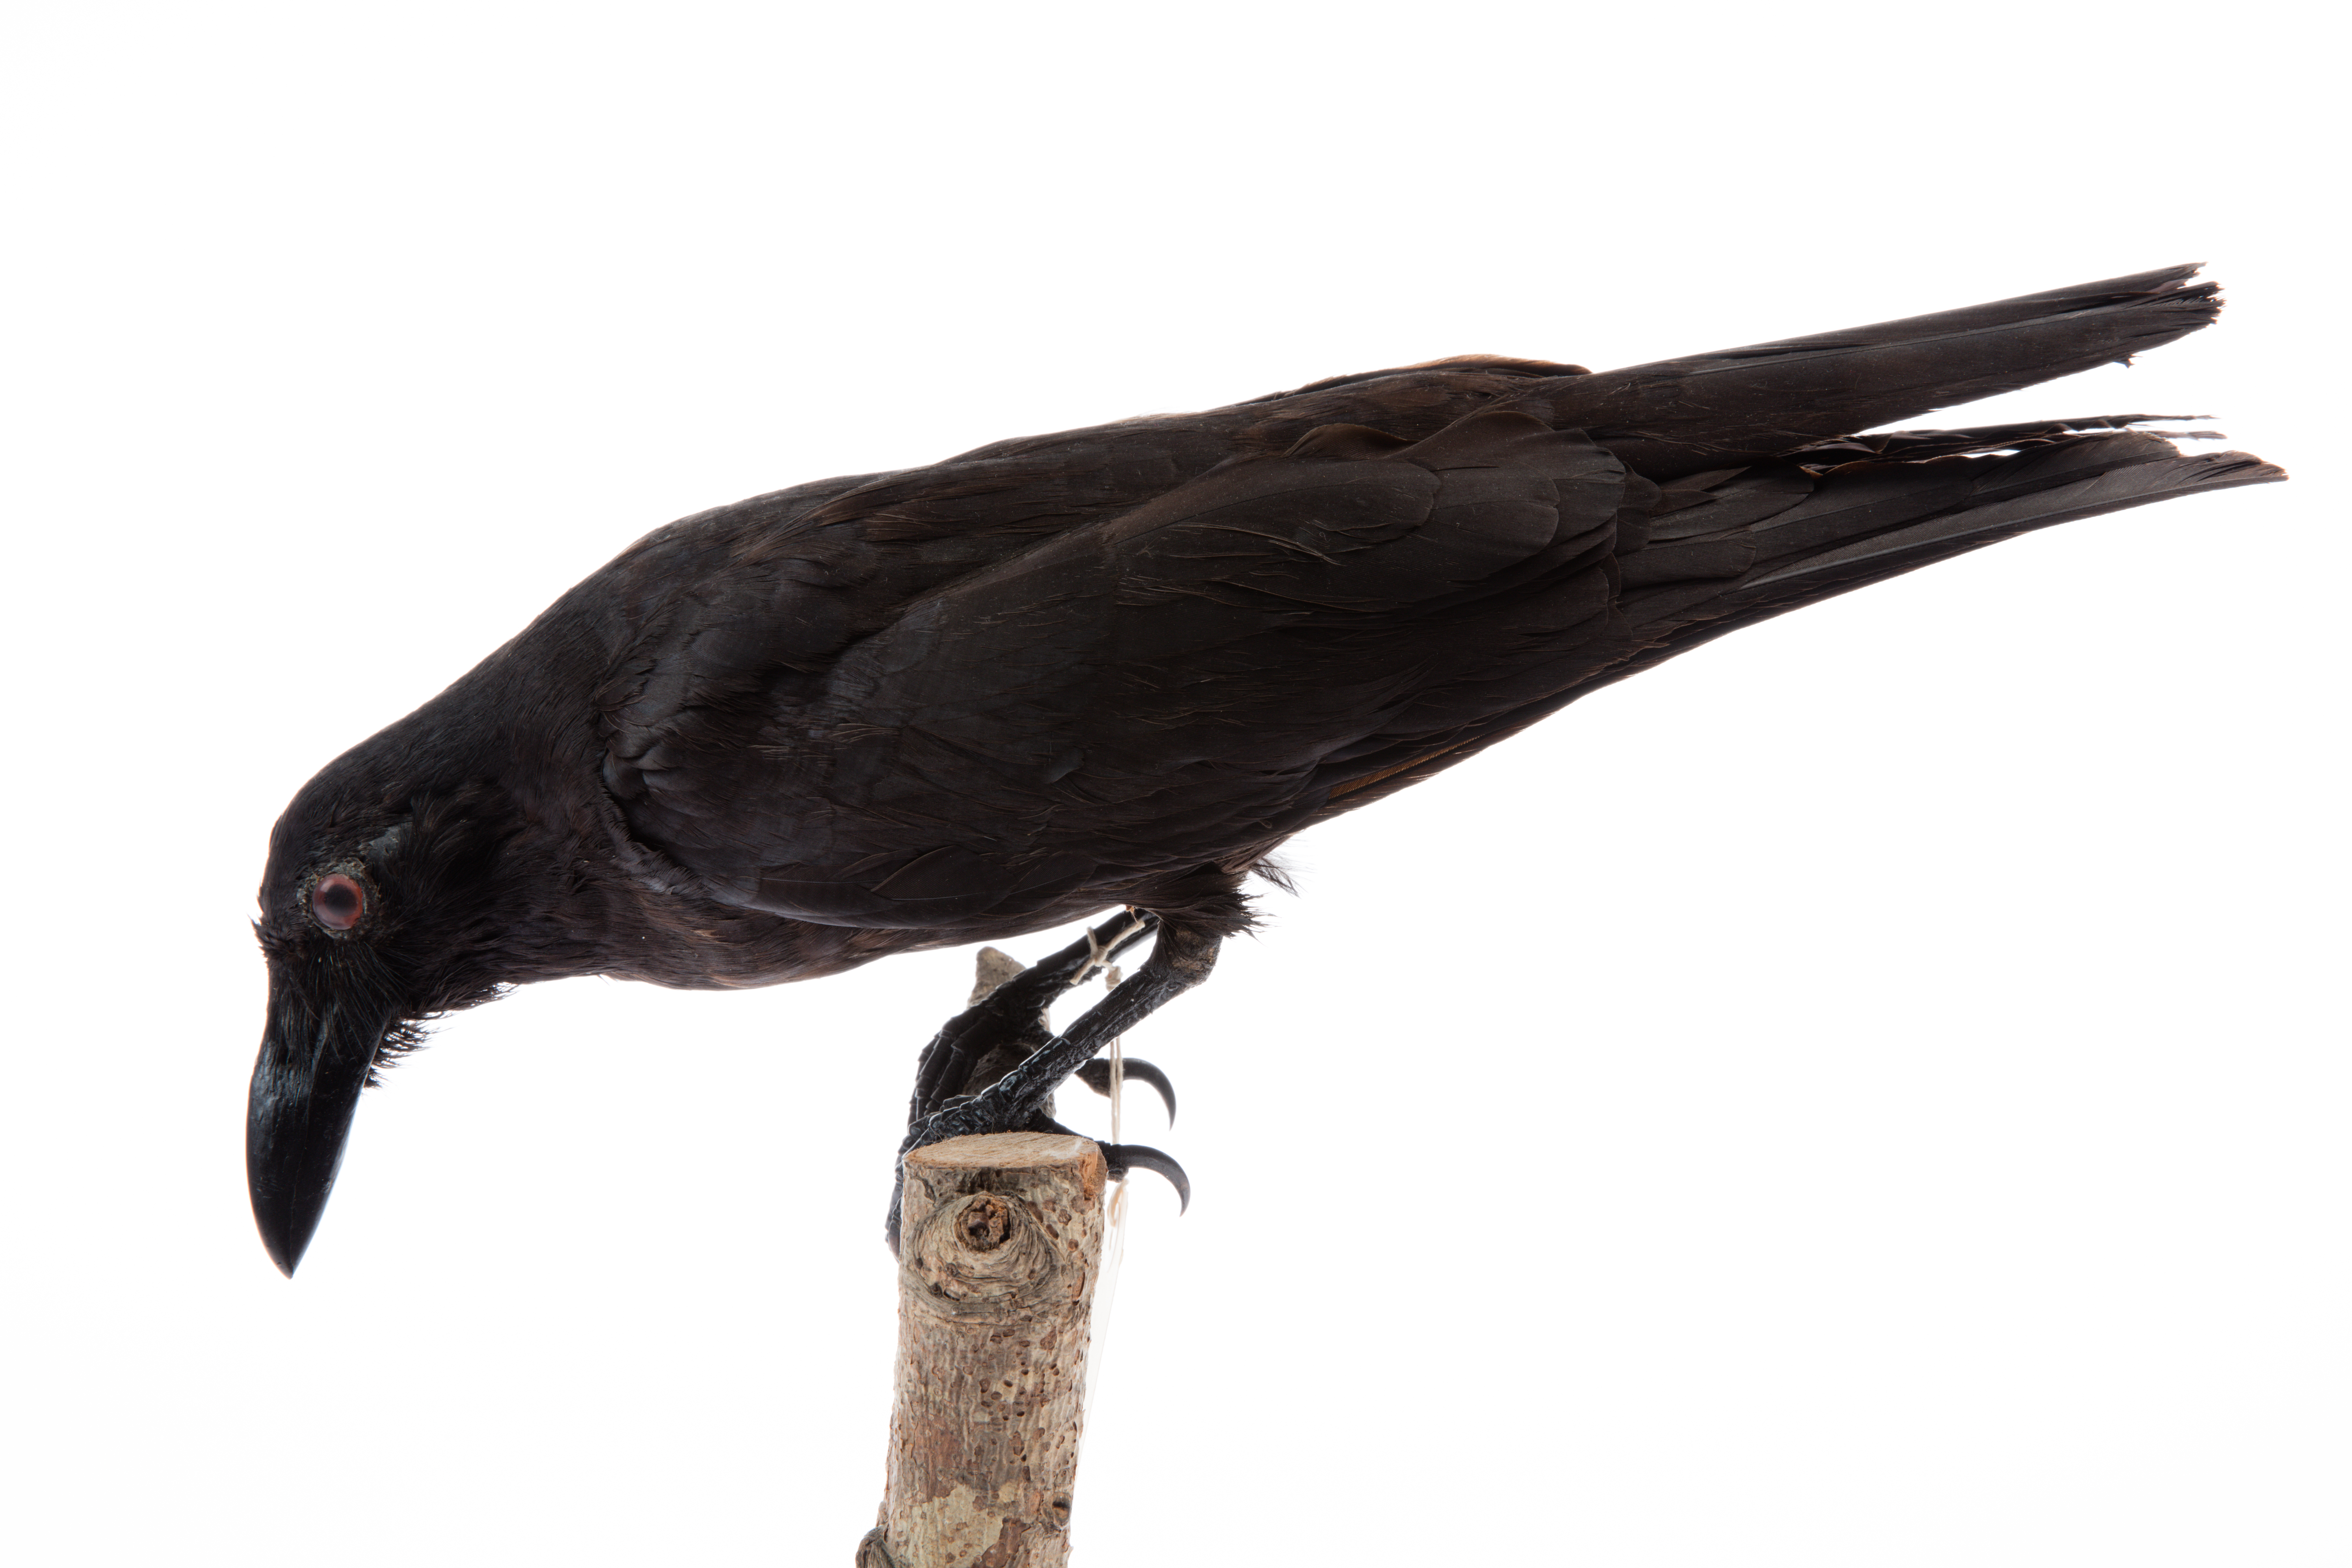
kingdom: Animalia
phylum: Chordata
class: Aves
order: Passeriformes
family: Corvidae
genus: Corvus
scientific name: Corvus orru
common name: Torresian crow
